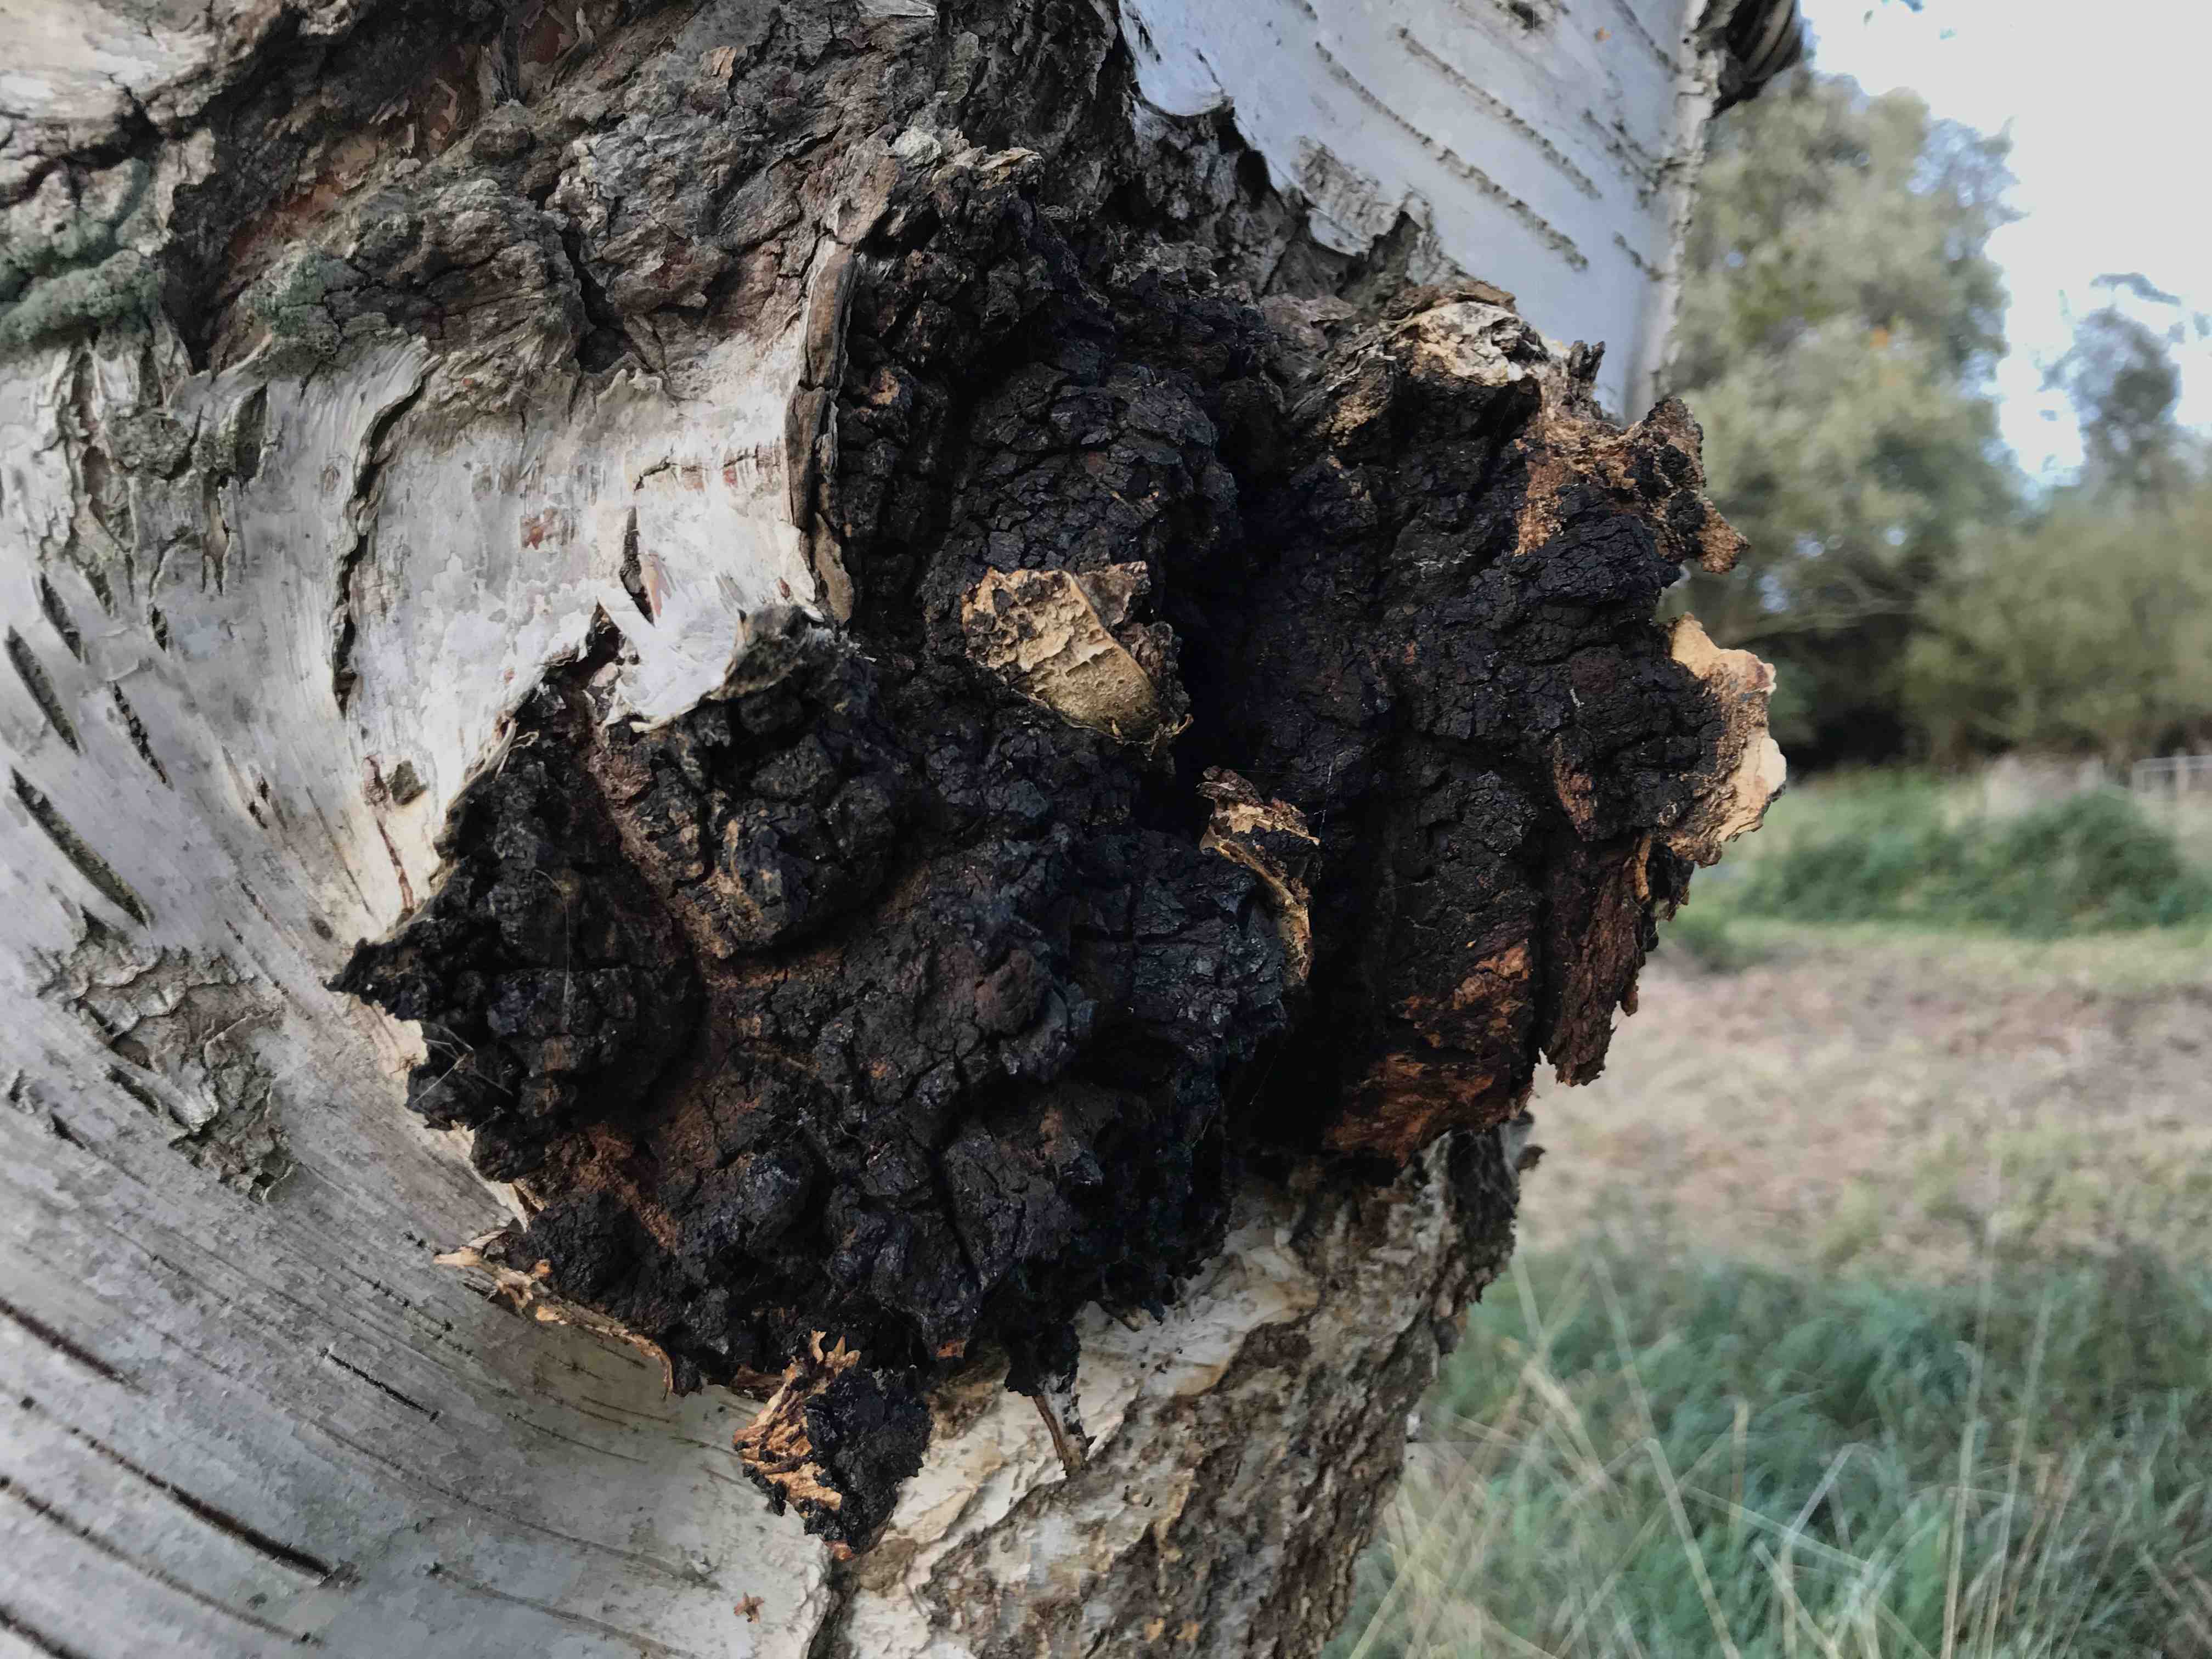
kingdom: Fungi
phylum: Basidiomycota
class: Agaricomycetes
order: Hymenochaetales
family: Hymenochaetaceae
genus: Inonotus
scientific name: Inonotus obliquus
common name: birke-spejlporesvamp
